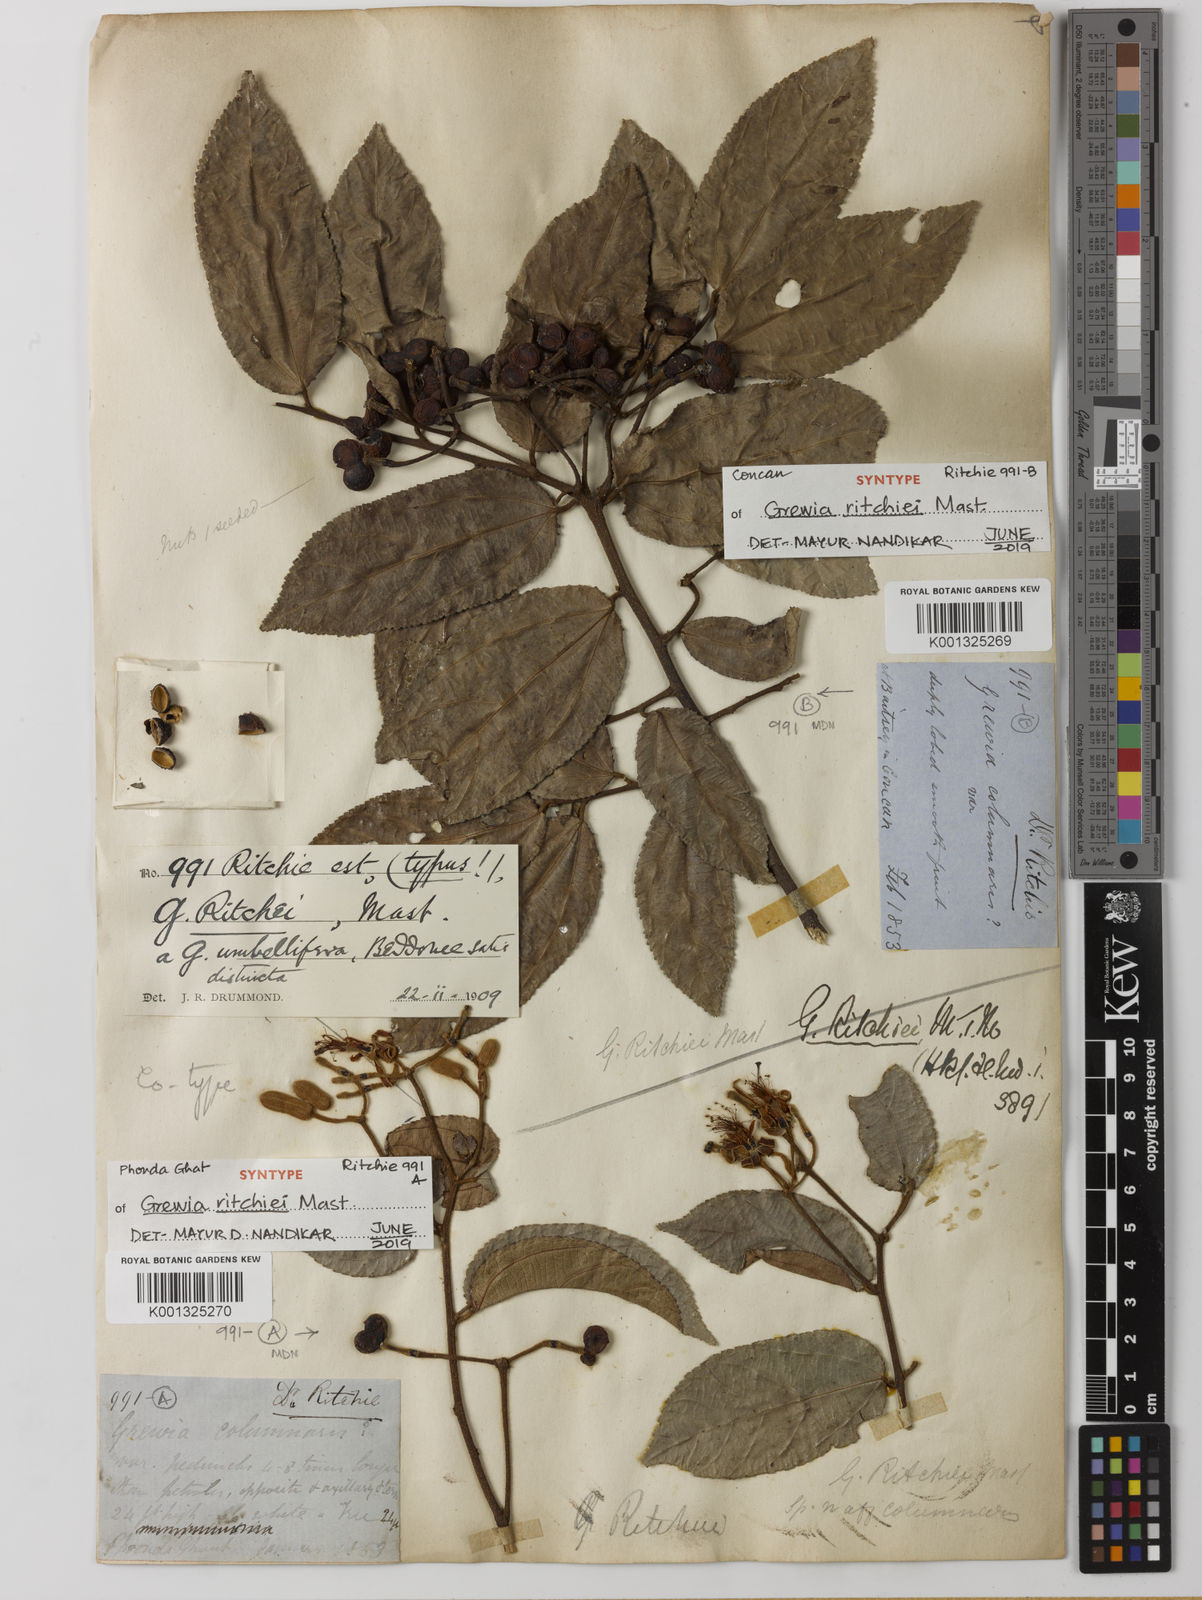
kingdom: Plantae
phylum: Tracheophyta
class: Magnoliopsida
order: Malvales
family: Malvaceae
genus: Grewia
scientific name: Grewia ritchiei
